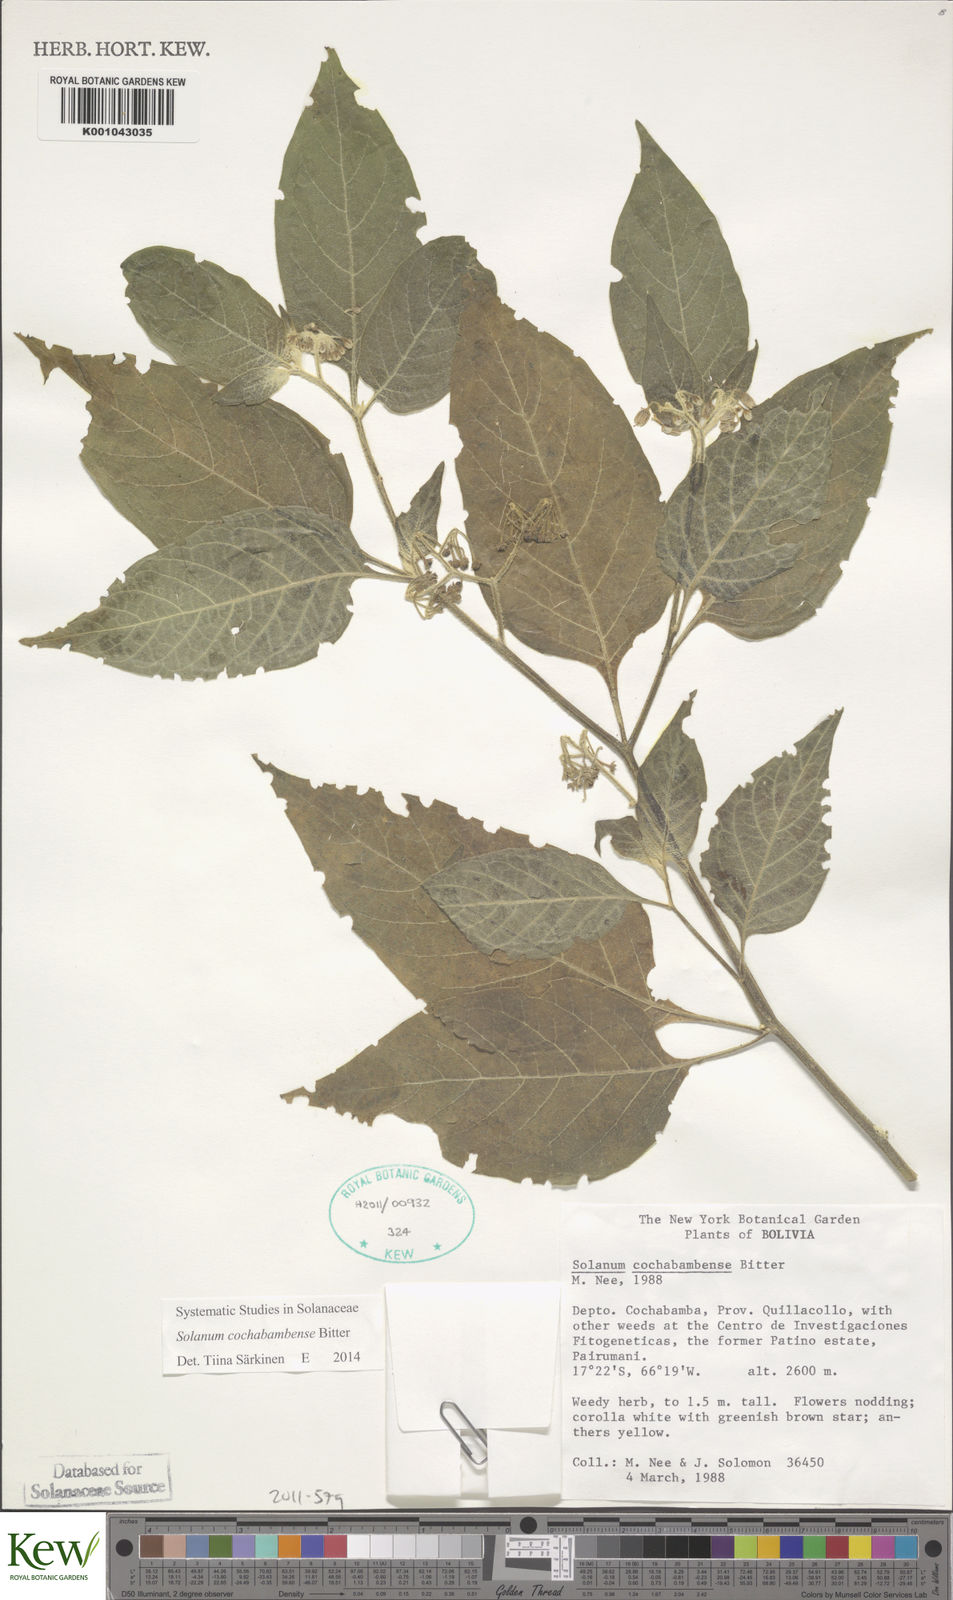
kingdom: Plantae
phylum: Tracheophyta
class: Magnoliopsida
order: Solanales
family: Solanaceae
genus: Solanum
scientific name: Solanum probolospermum
